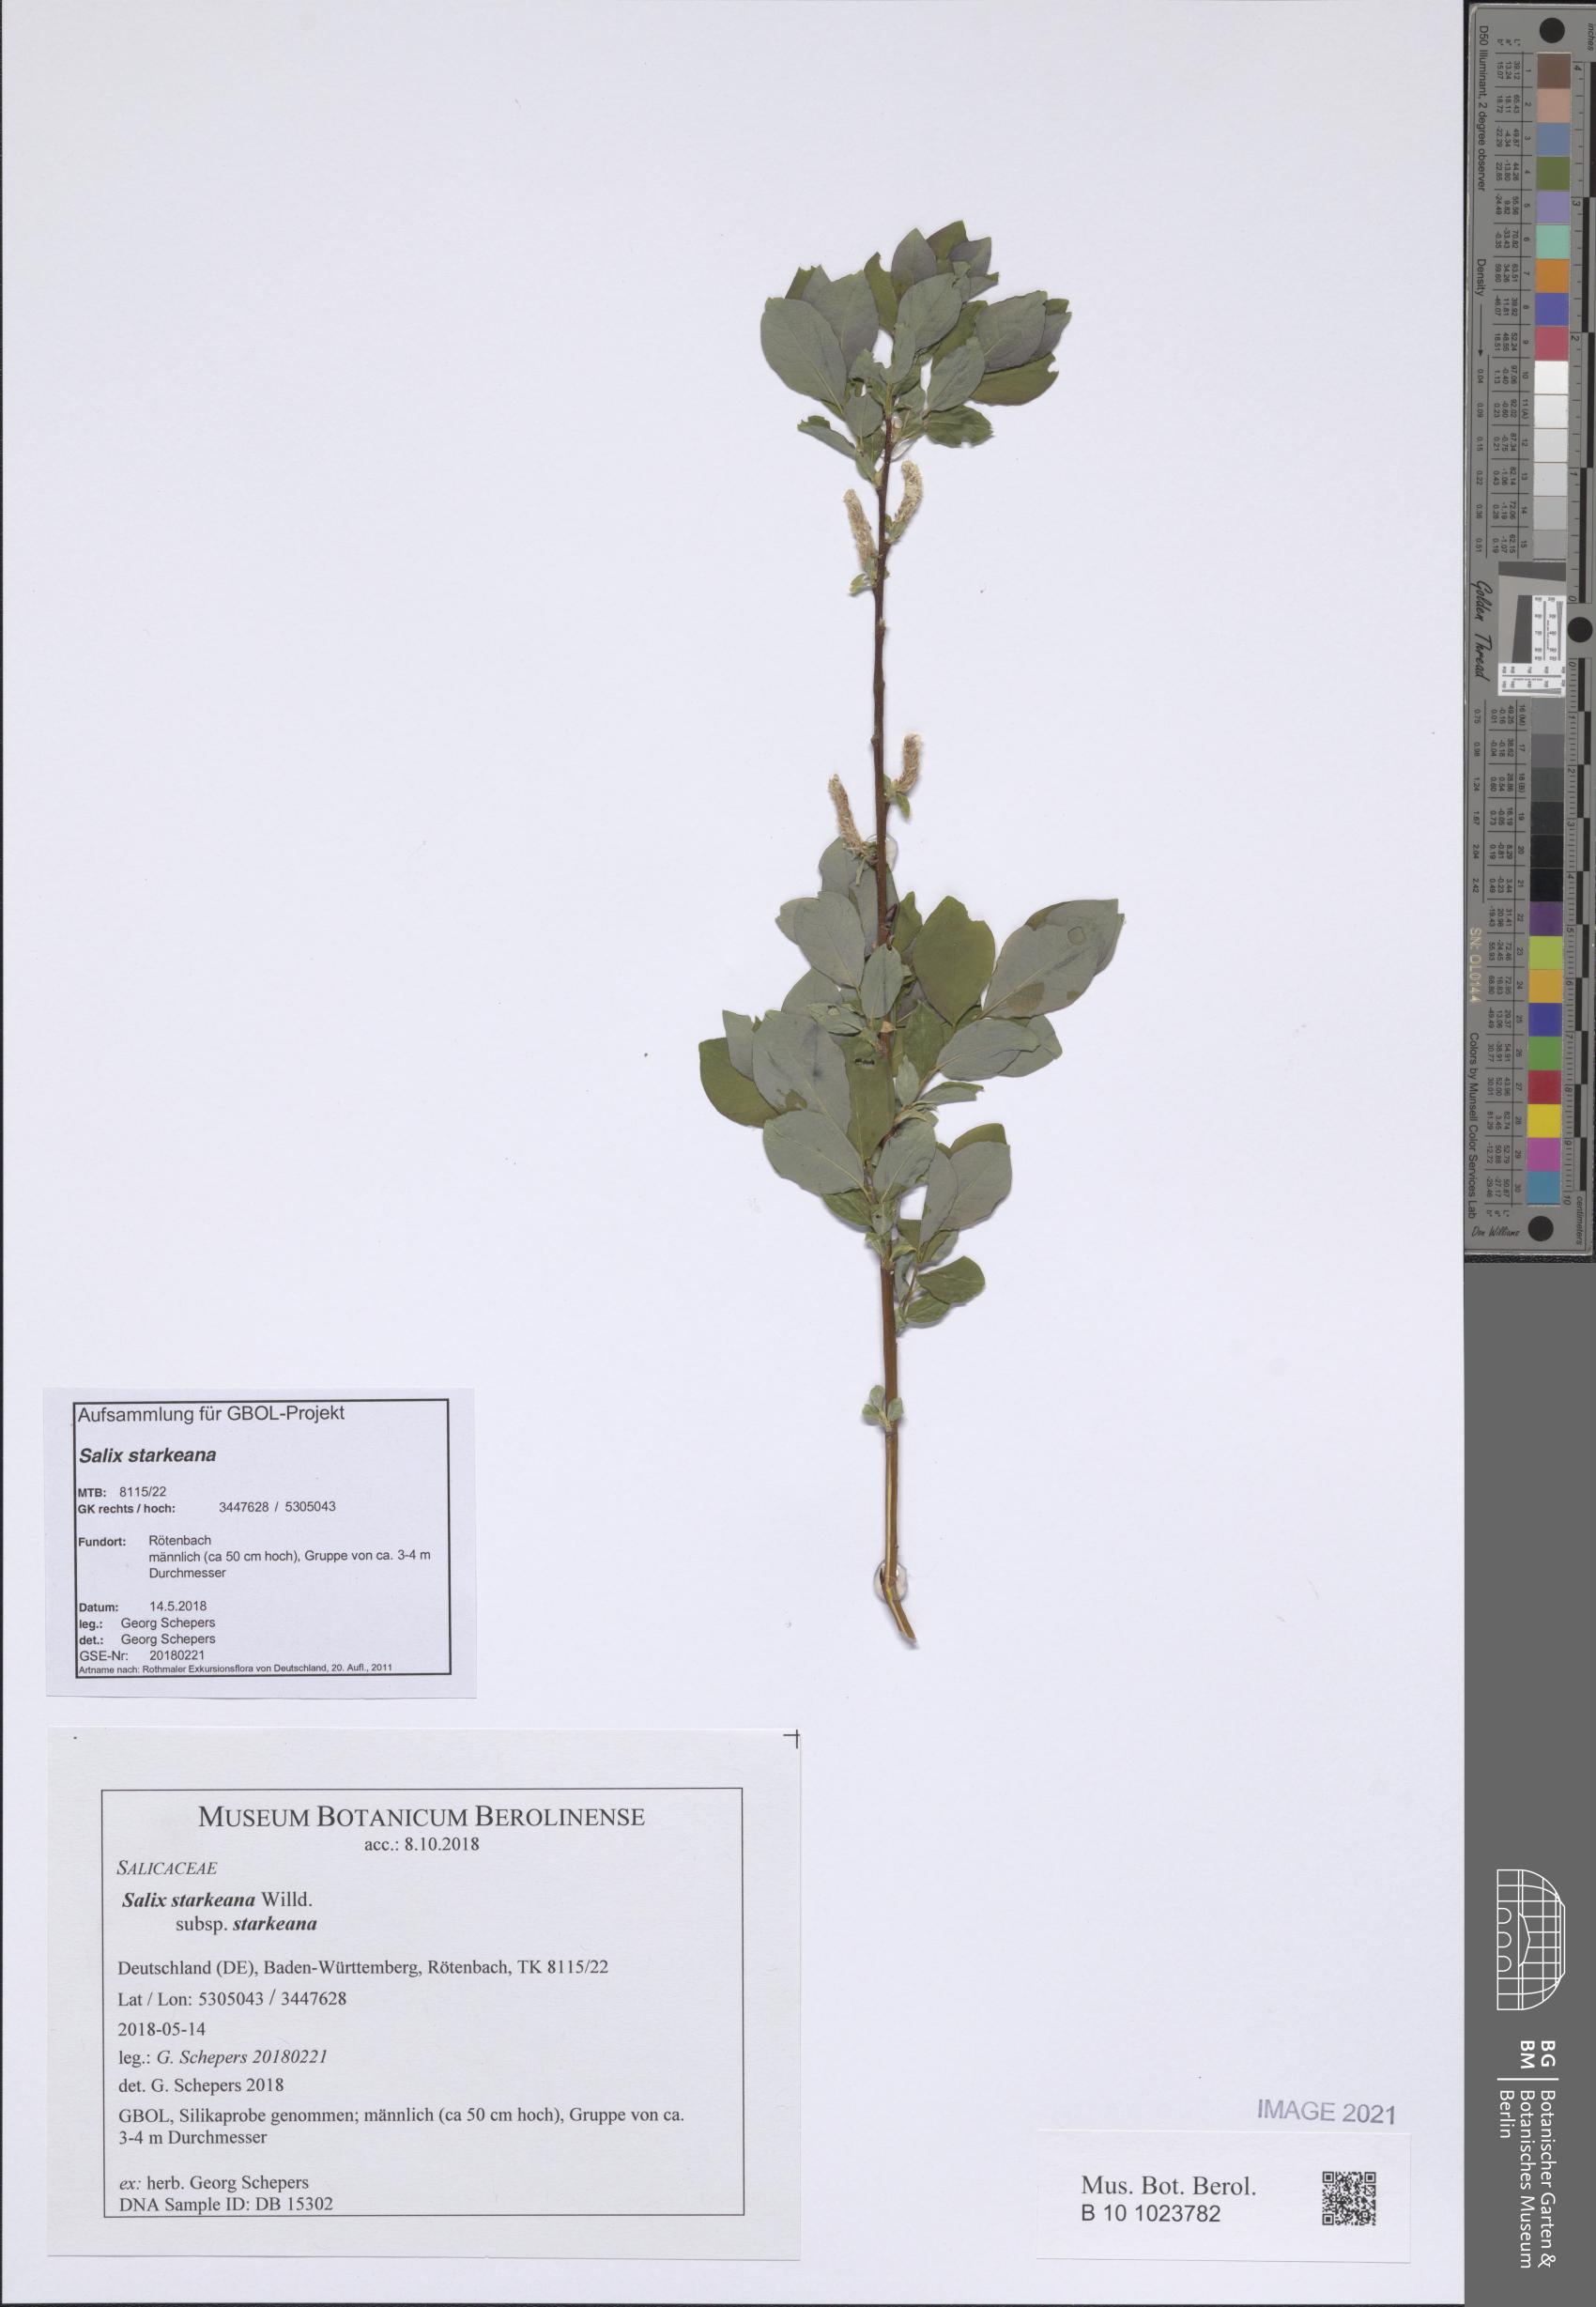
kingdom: Plantae
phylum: Tracheophyta
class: Magnoliopsida
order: Malpighiales
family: Salicaceae
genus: Salix
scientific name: Salix starkeana
